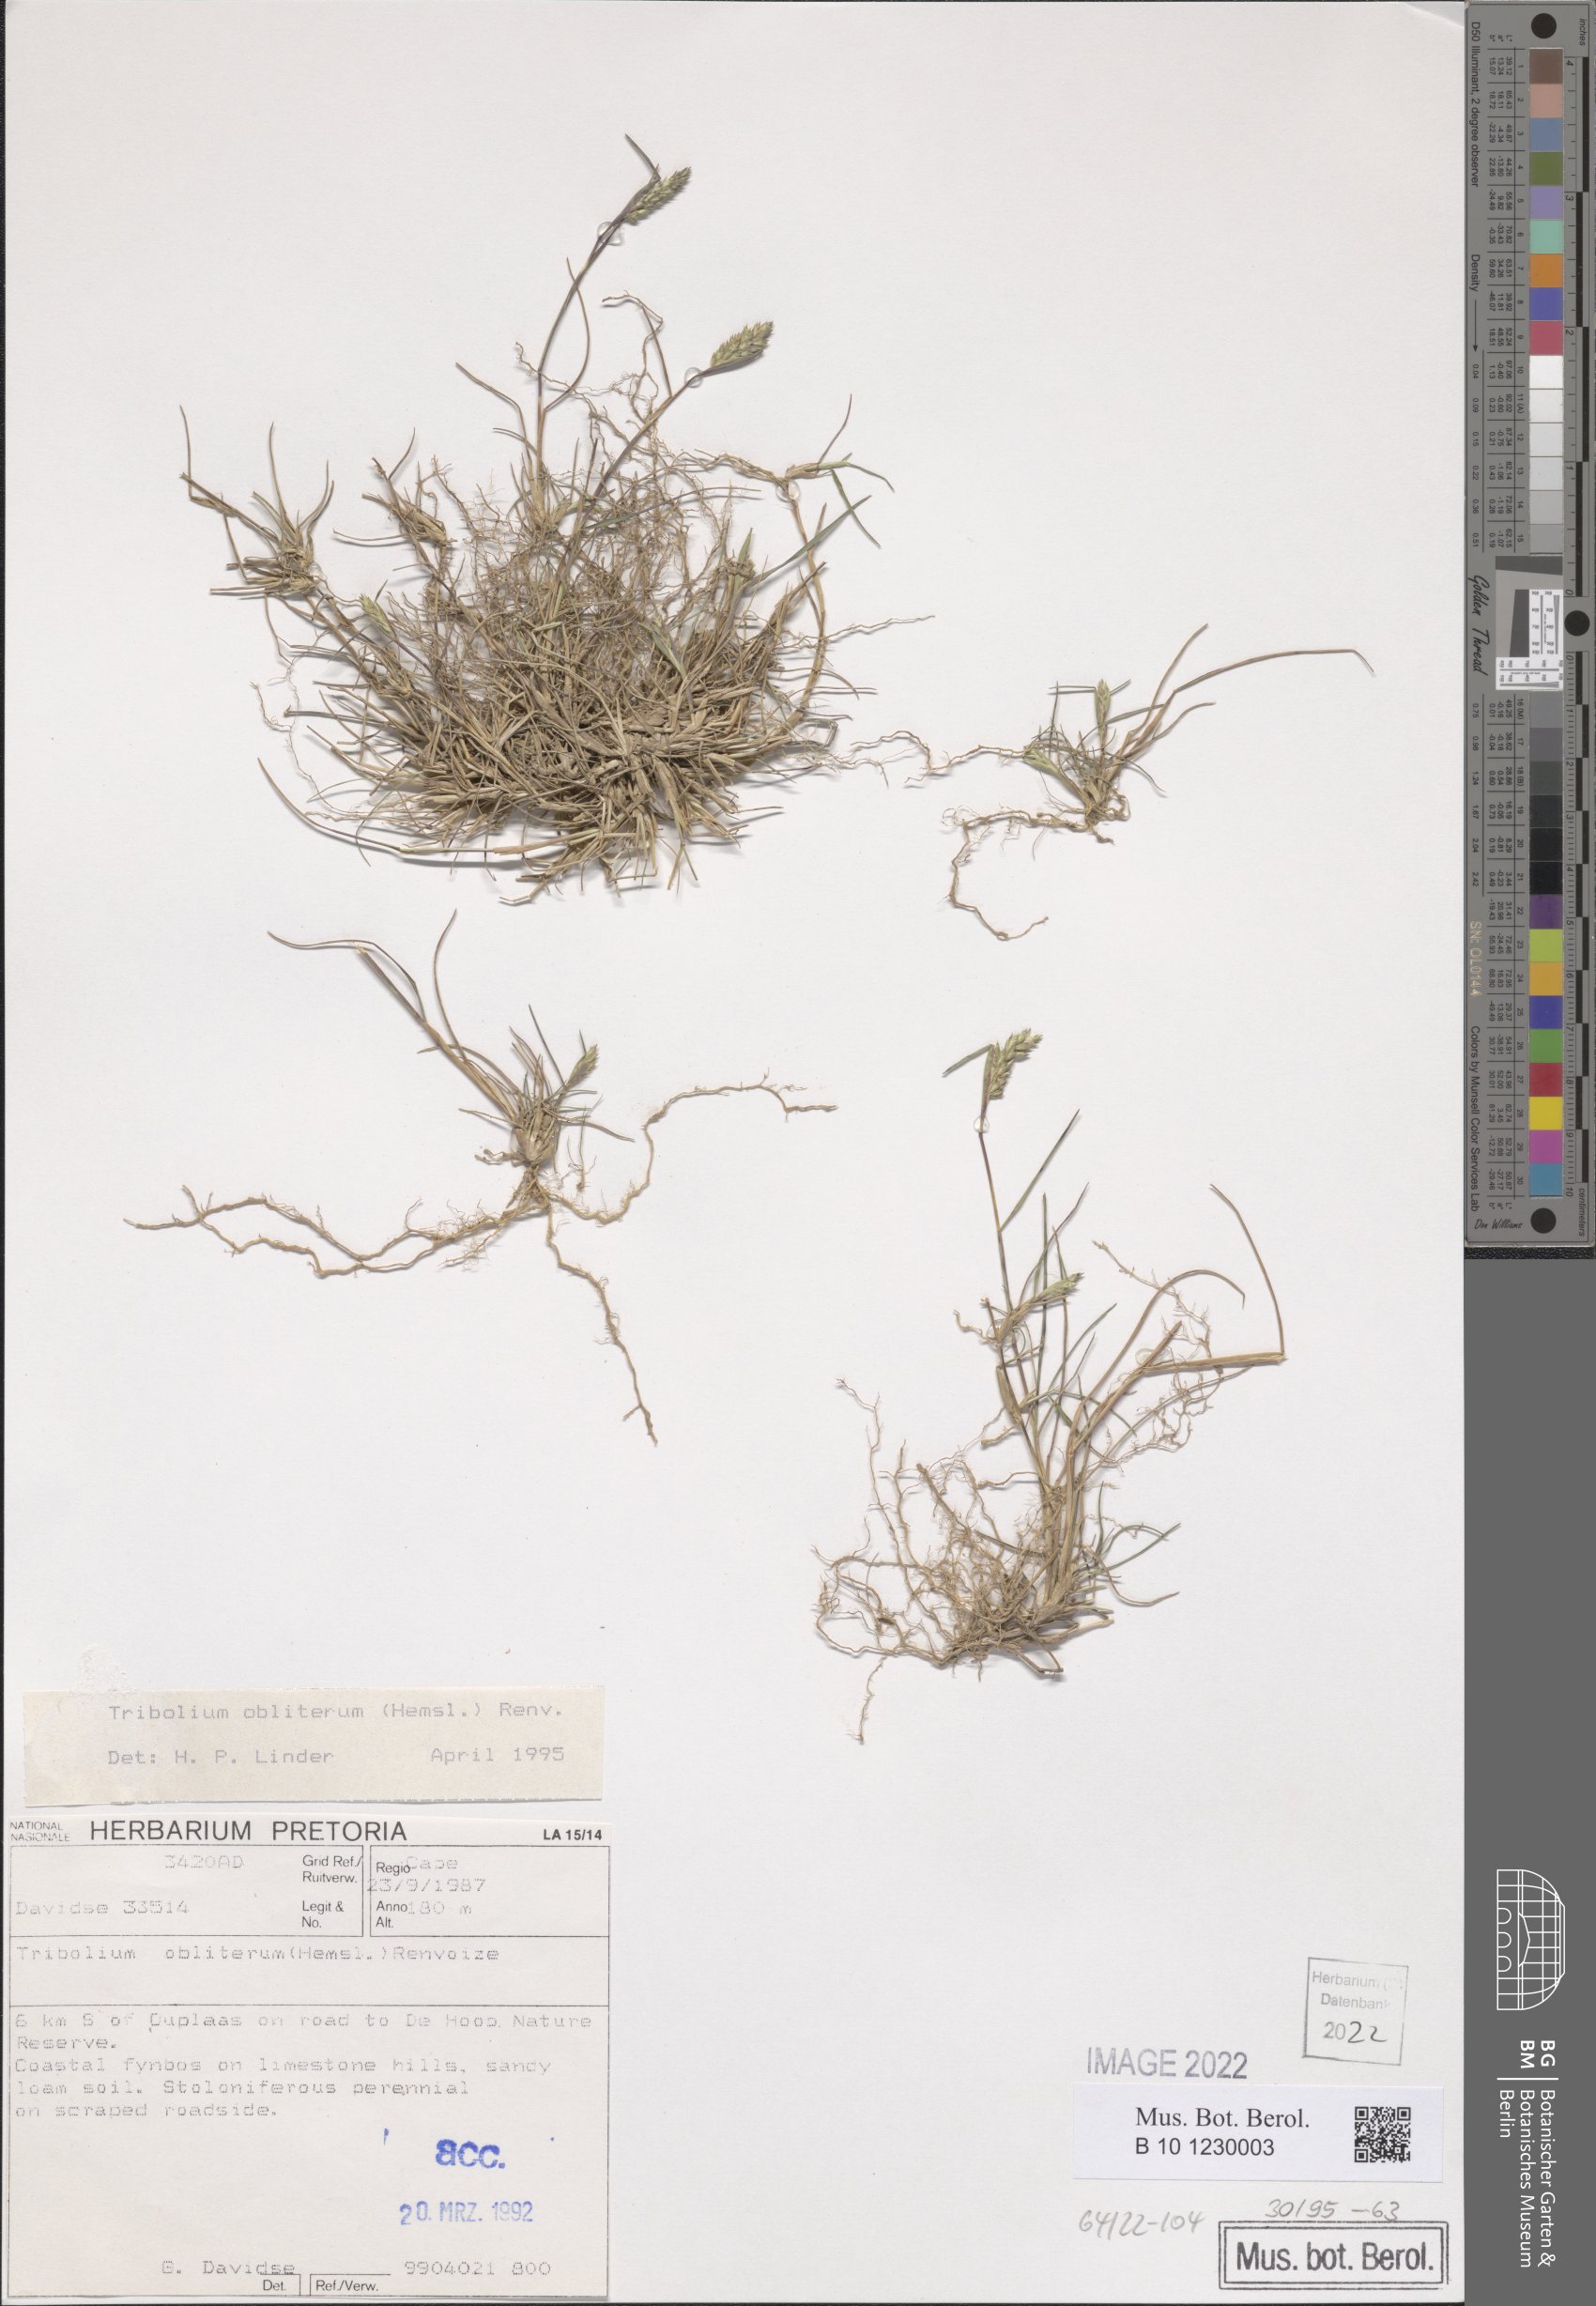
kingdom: Plantae
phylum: Tracheophyta
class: Liliopsida
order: Poales
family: Poaceae
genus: Tribolium
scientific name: Tribolium obliterum
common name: Capetown grass
